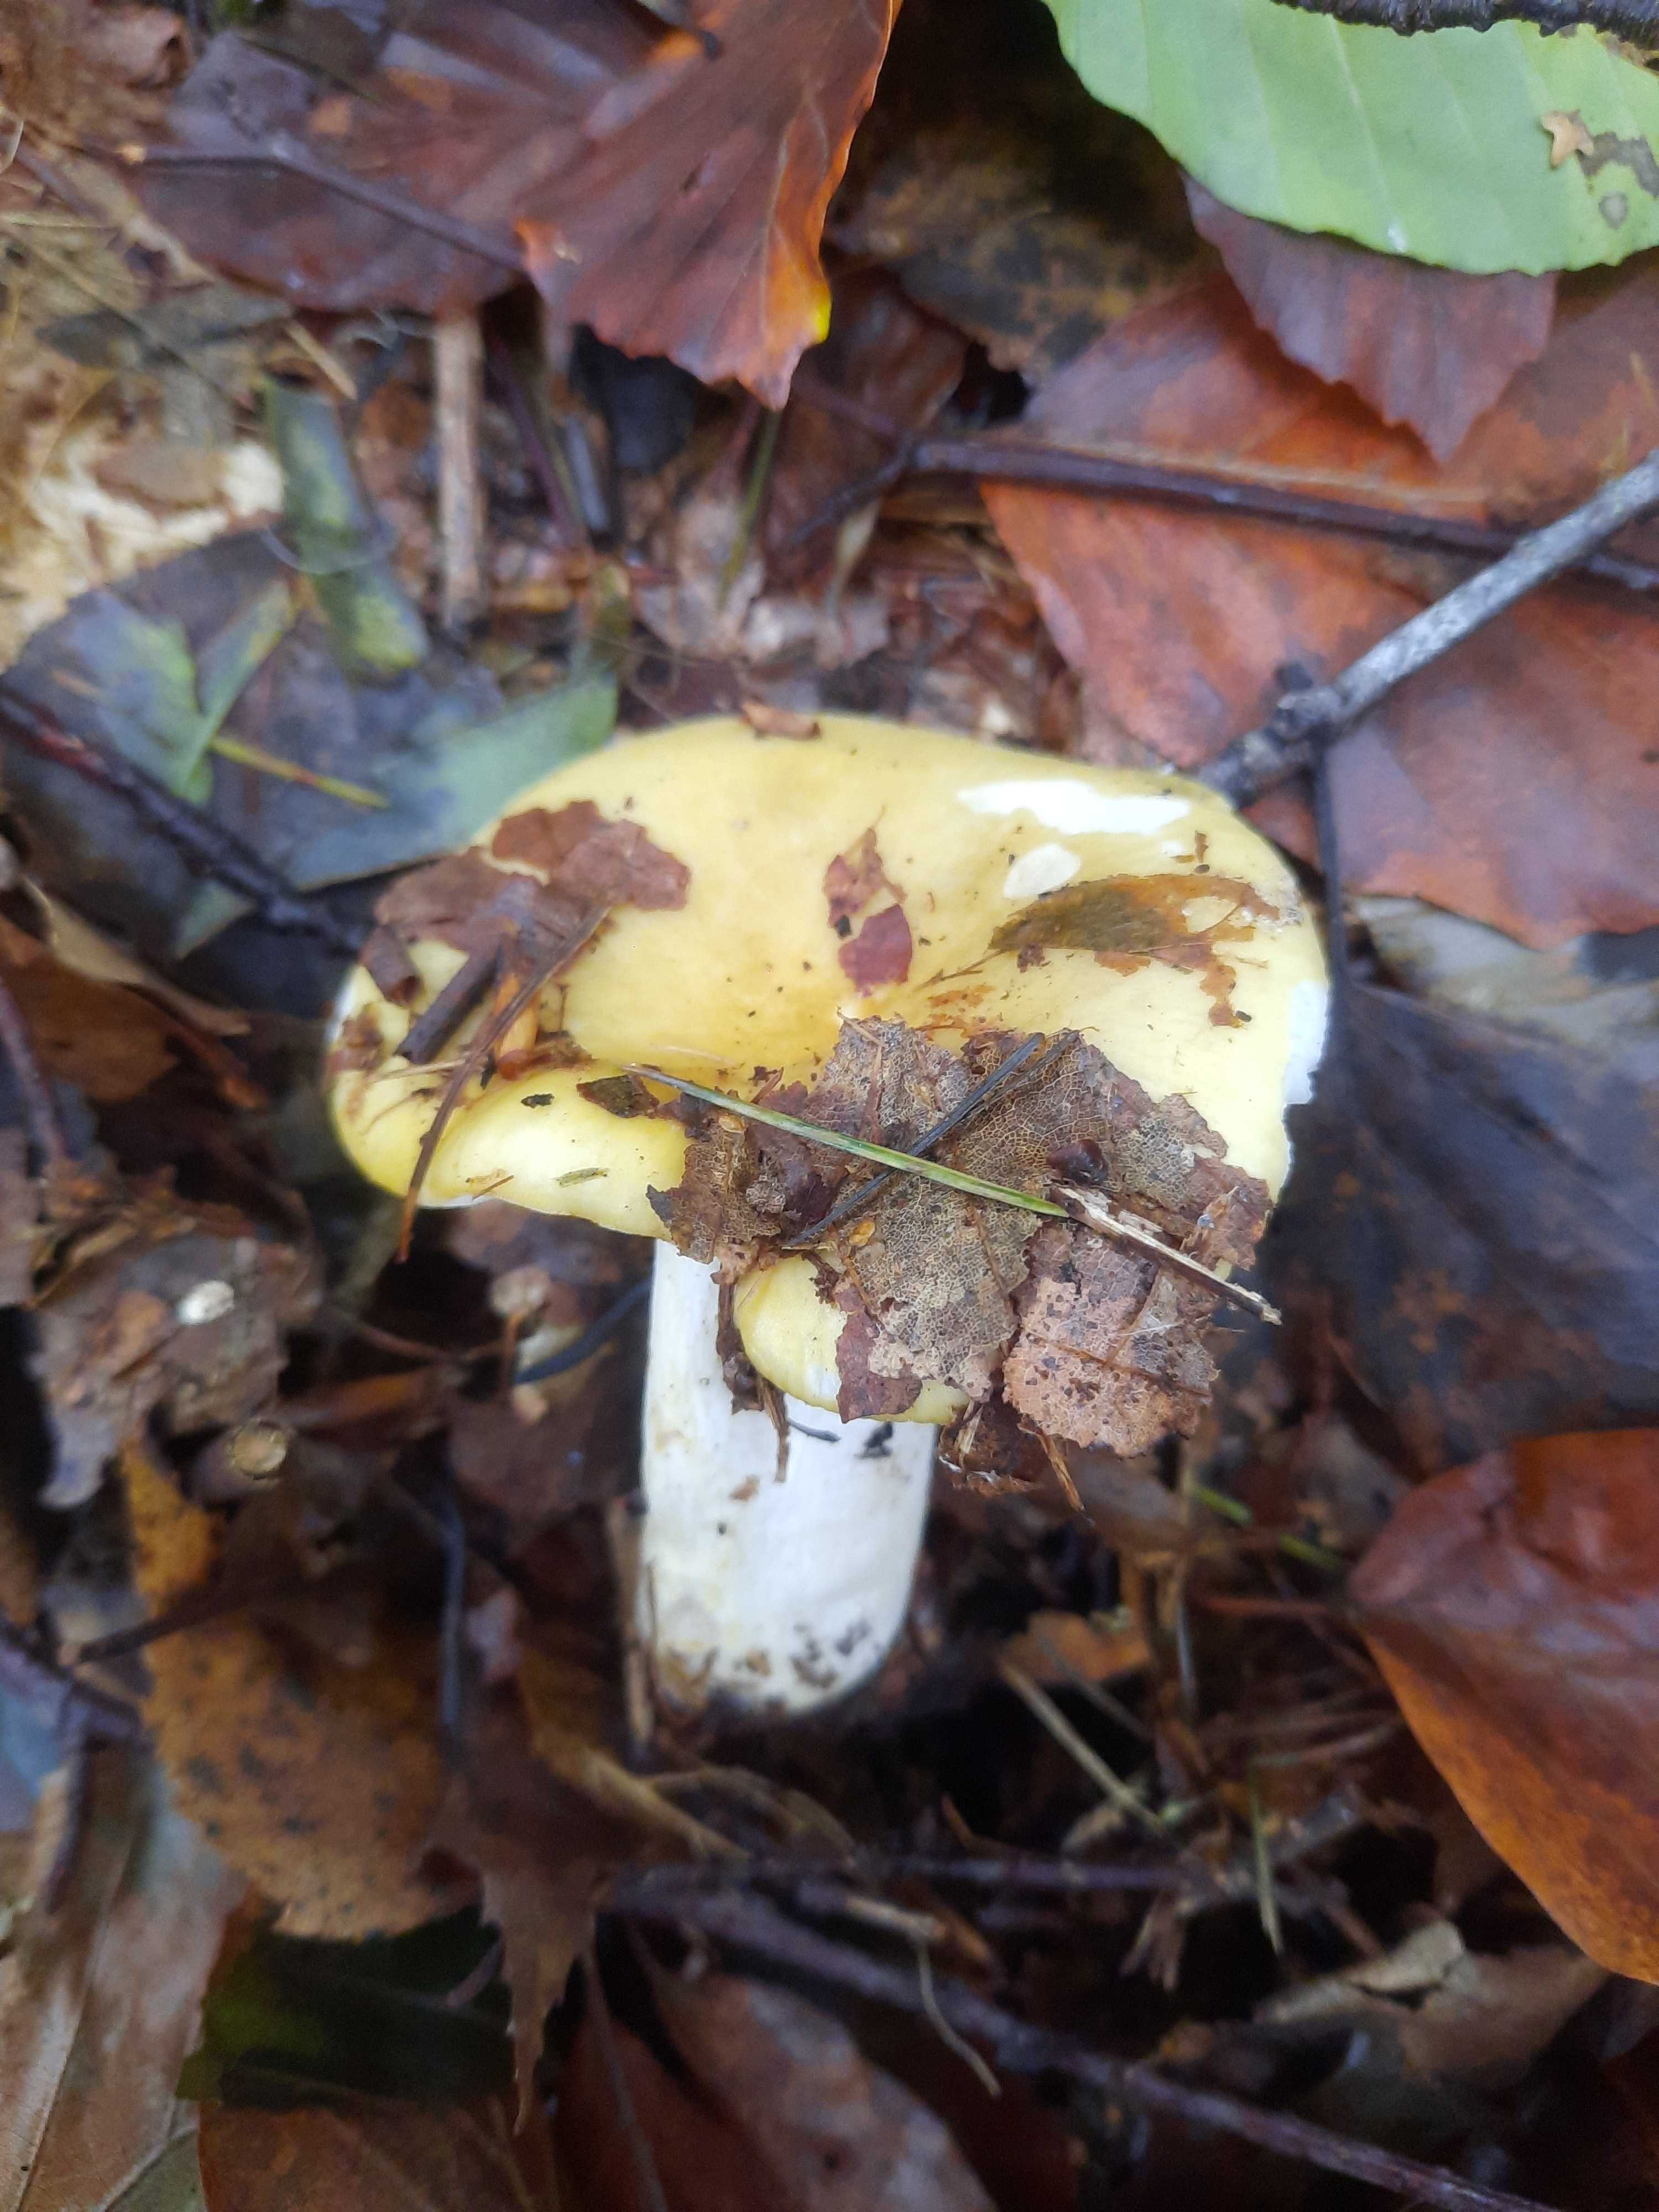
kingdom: Fungi
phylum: Basidiomycota
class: Agaricomycetes
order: Russulales
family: Russulaceae
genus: Russula
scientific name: Russula ochroleuca
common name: okkergul skørhat
